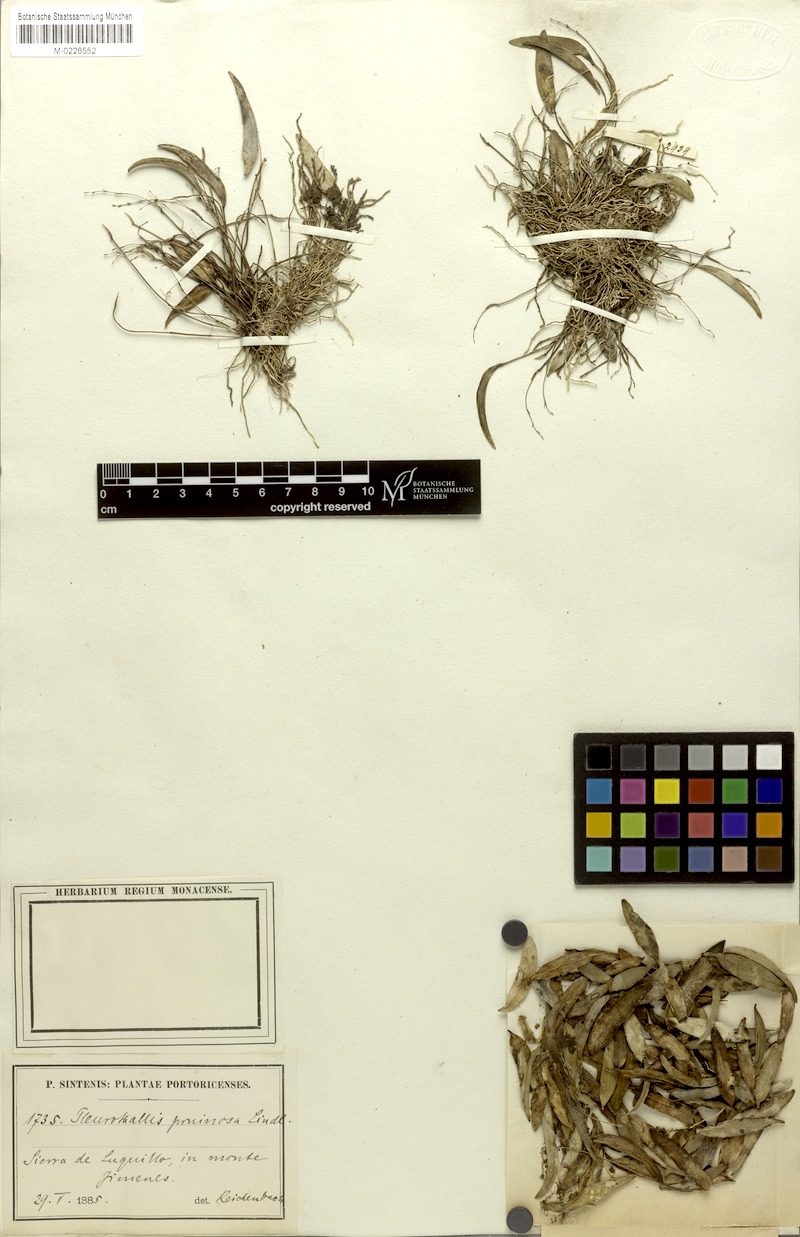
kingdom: Plantae
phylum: Tracheophyta
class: Liliopsida
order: Asparagales
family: Orchidaceae
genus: Pleurothallis
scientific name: Pleurothallis pruinosa
